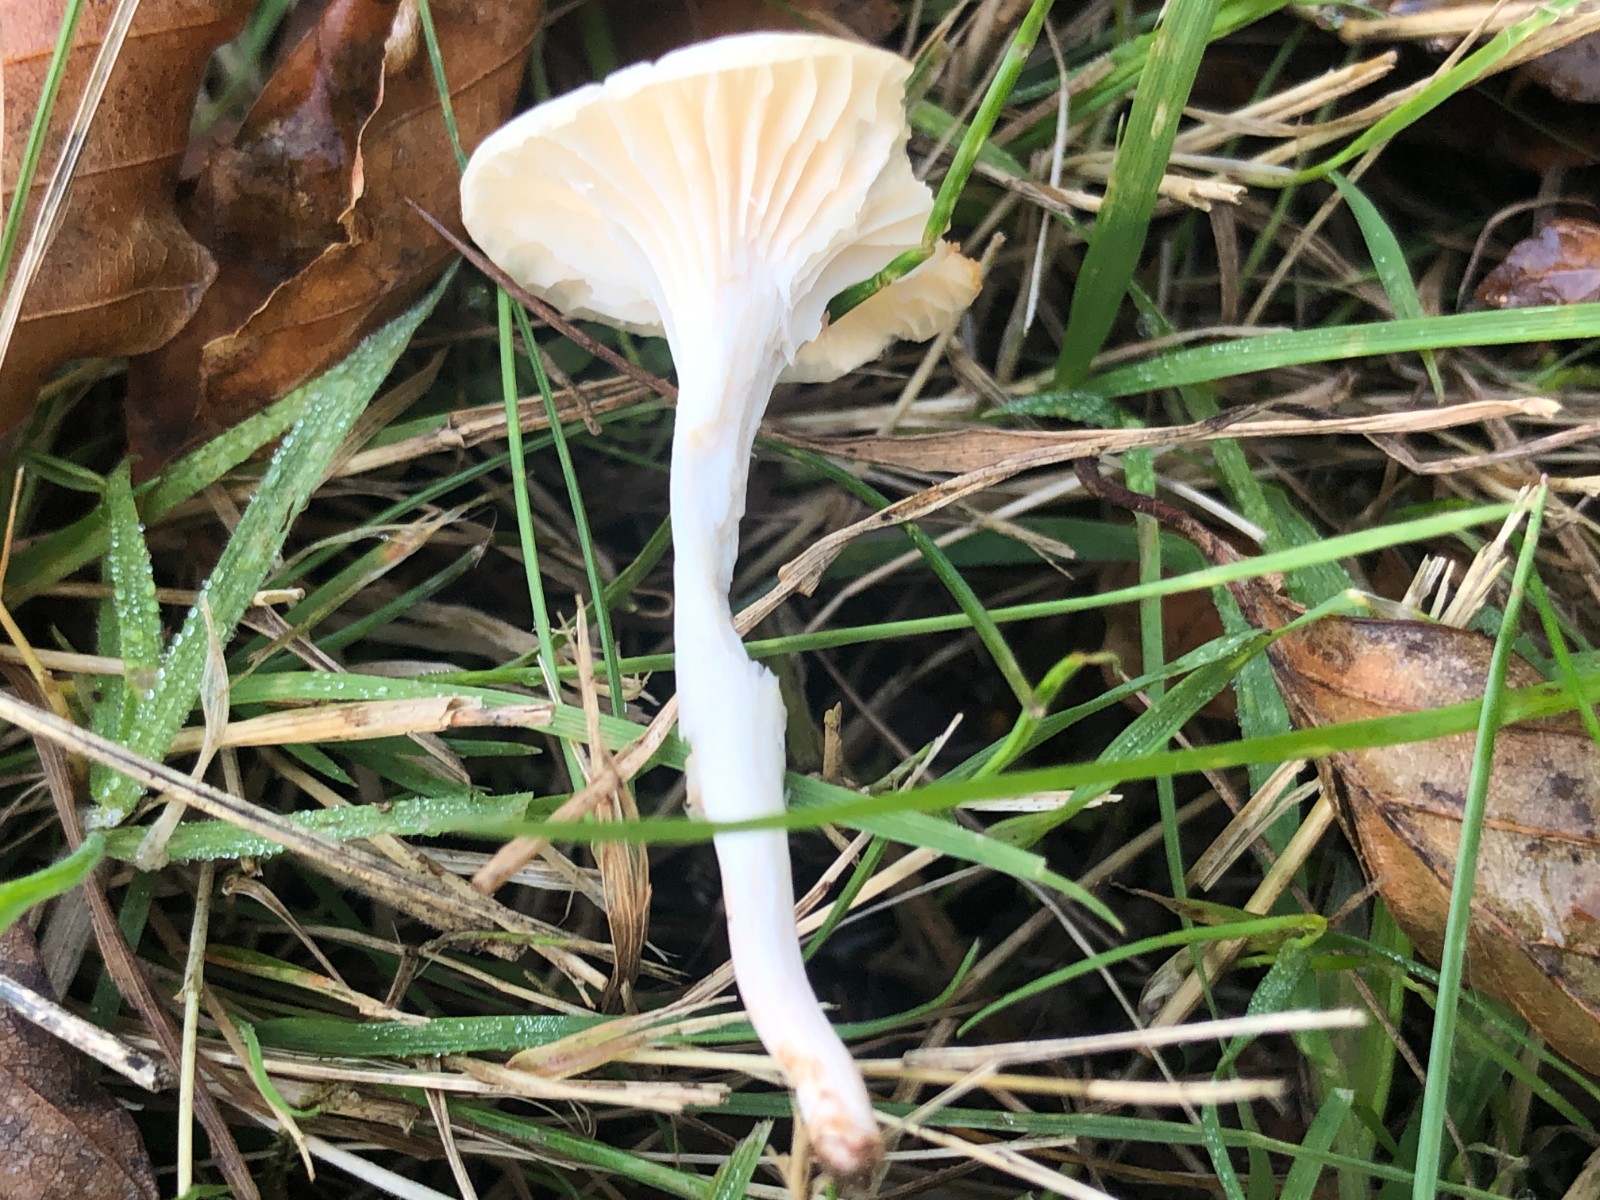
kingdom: Fungi
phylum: Basidiomycota
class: Agaricomycetes
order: Agaricales
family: Hygrophoraceae
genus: Cuphophyllus
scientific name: Cuphophyllus
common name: vokshat
